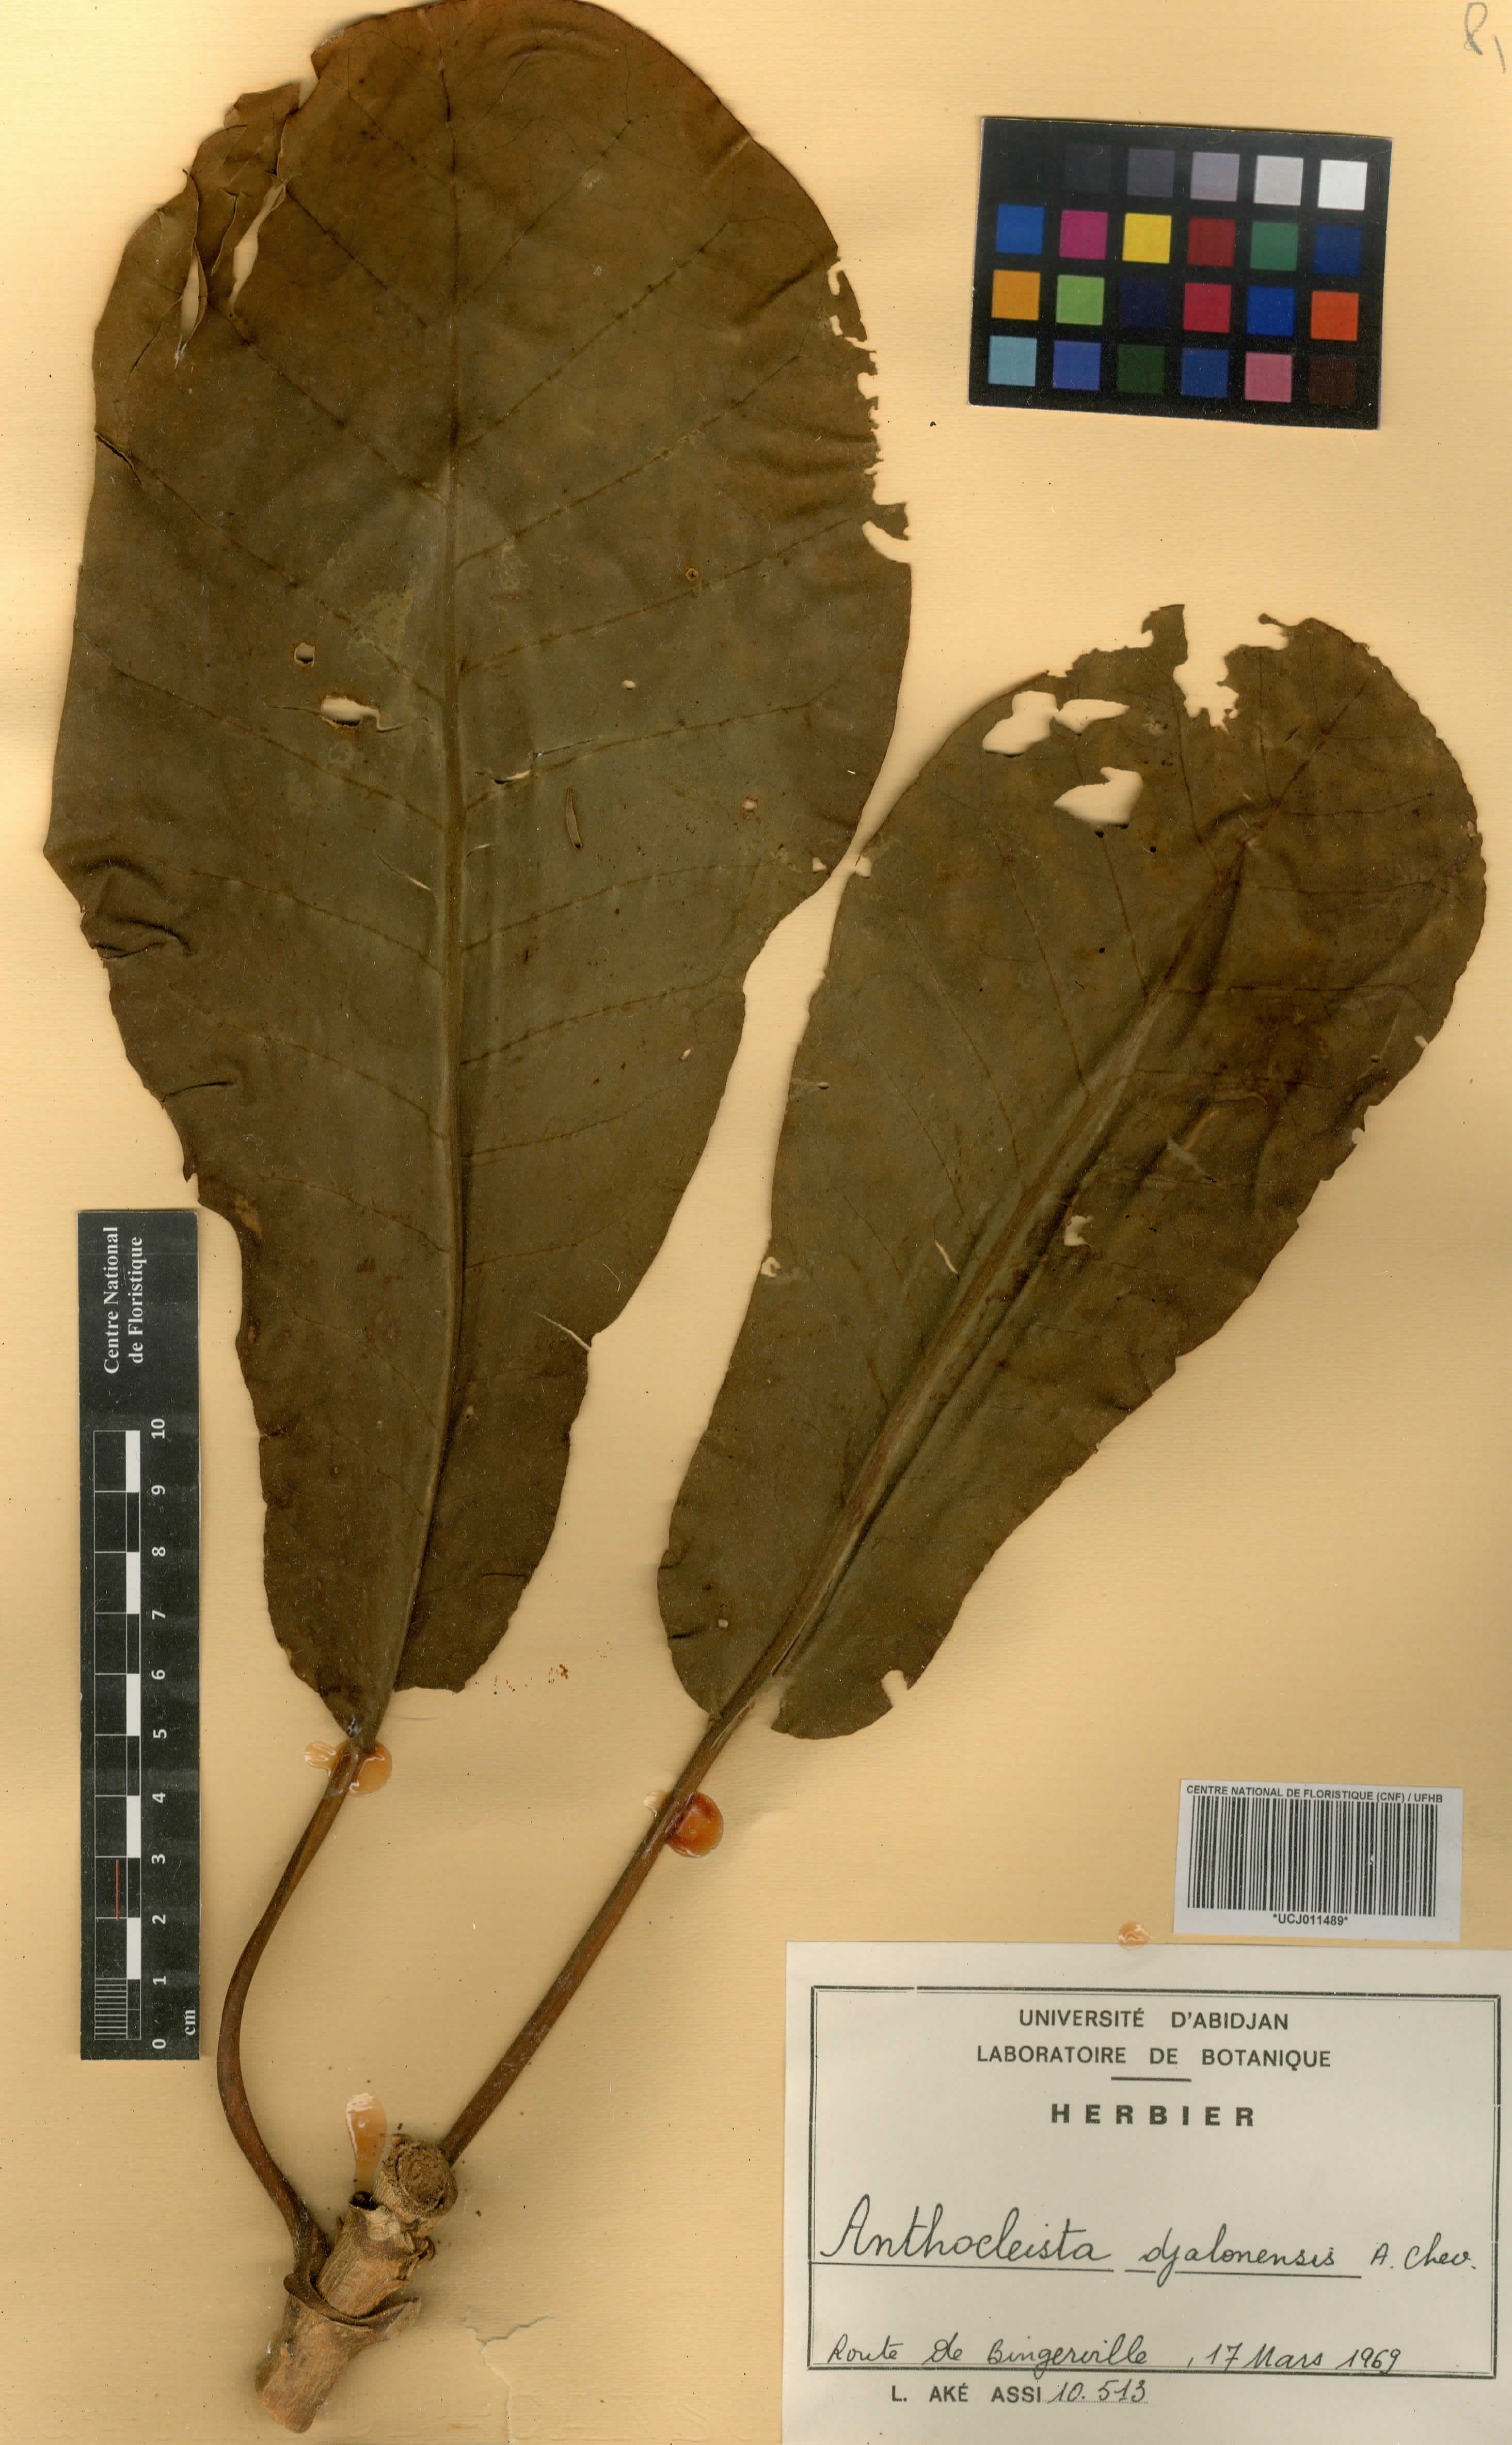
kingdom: Plantae
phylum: Tracheophyta
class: Magnoliopsida
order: Gentianales
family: Gentianaceae
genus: Anthocleista
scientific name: Anthocleista djalonensis
